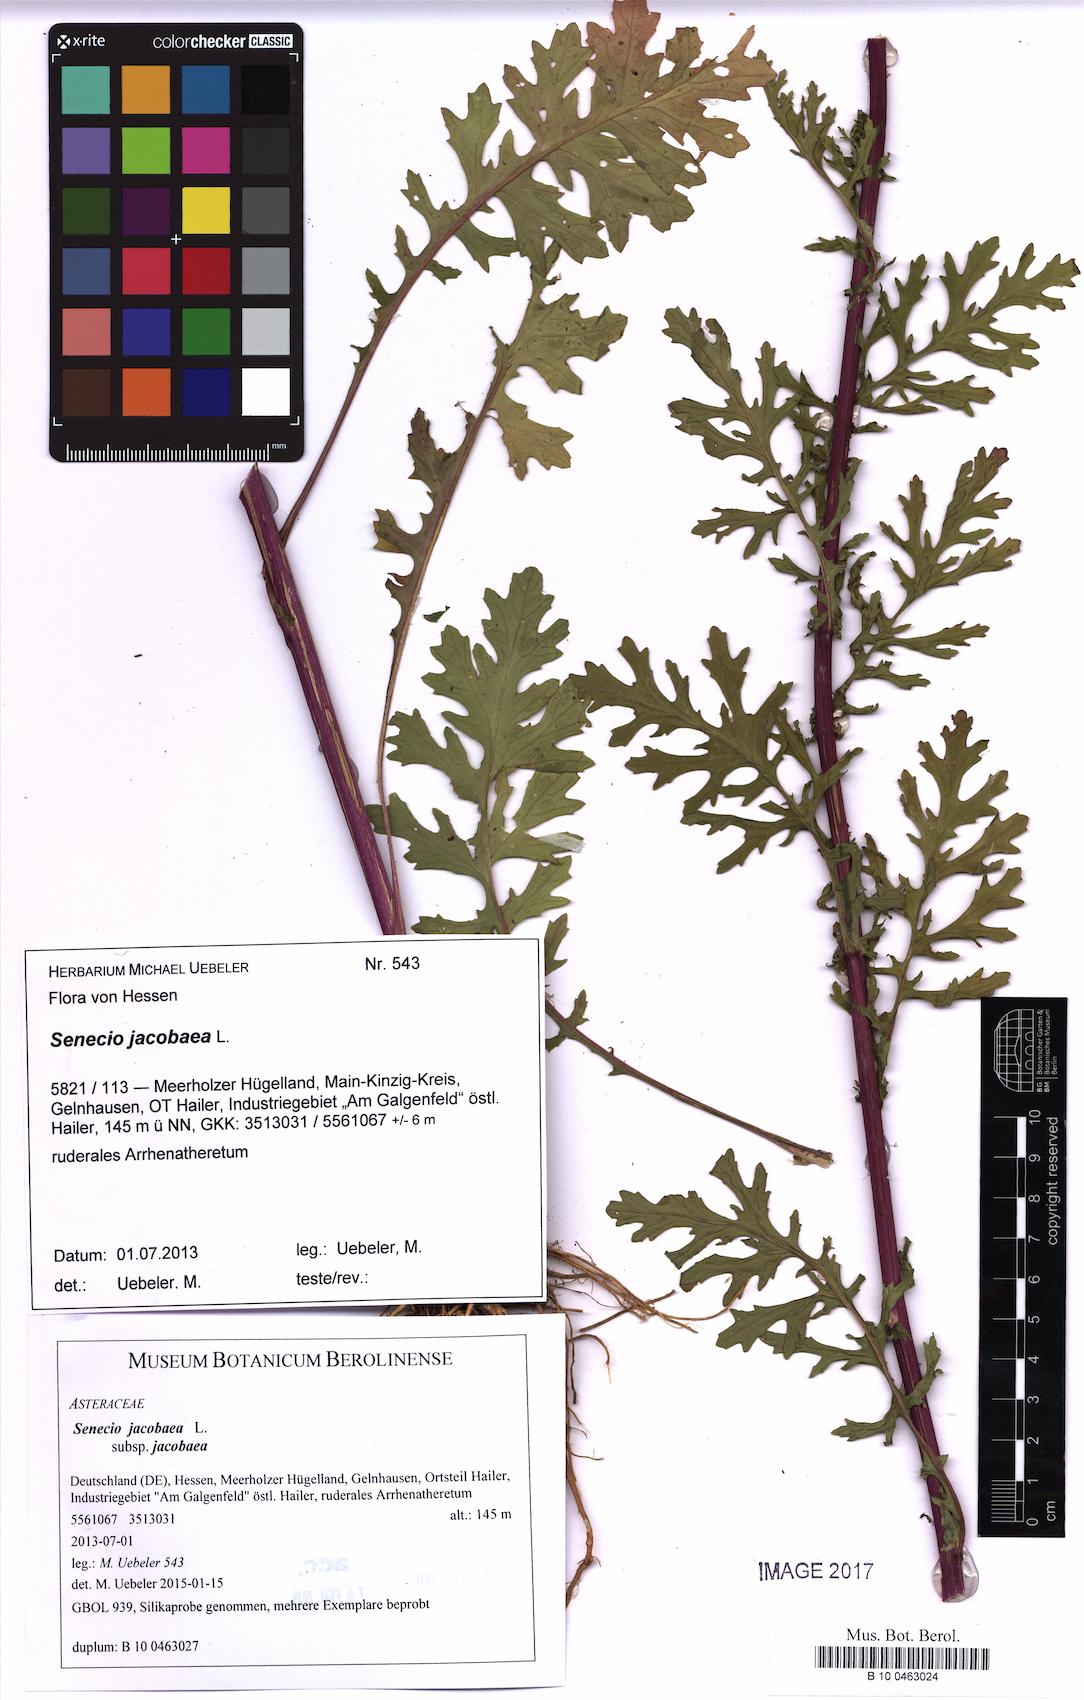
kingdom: Plantae
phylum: Tracheophyta
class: Magnoliopsida
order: Asterales
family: Asteraceae
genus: Jacobaea
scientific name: Jacobaea vulgaris
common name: Stinking willie
